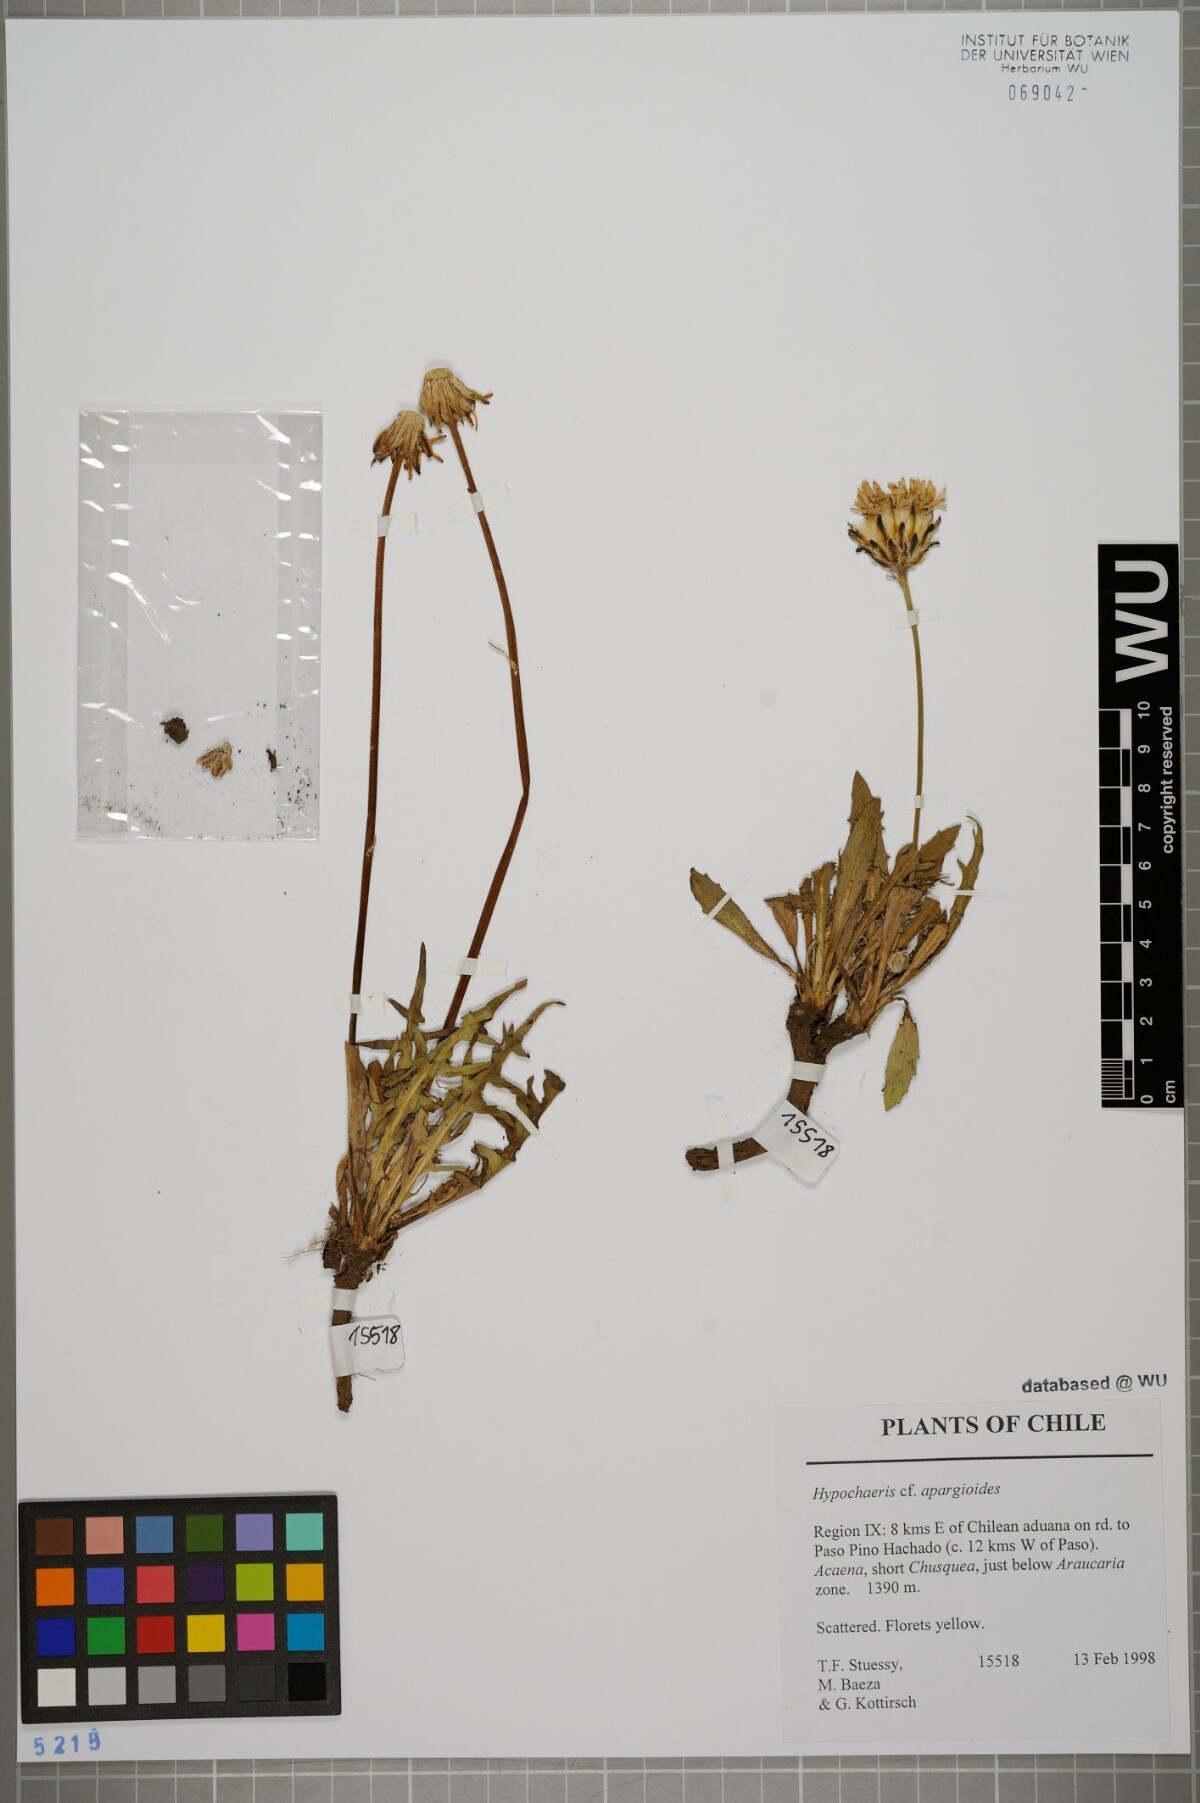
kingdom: Plantae
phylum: Tracheophyta
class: Magnoliopsida
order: Asterales
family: Asteraceae
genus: Hypochaeris
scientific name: Hypochaeris apargioides
